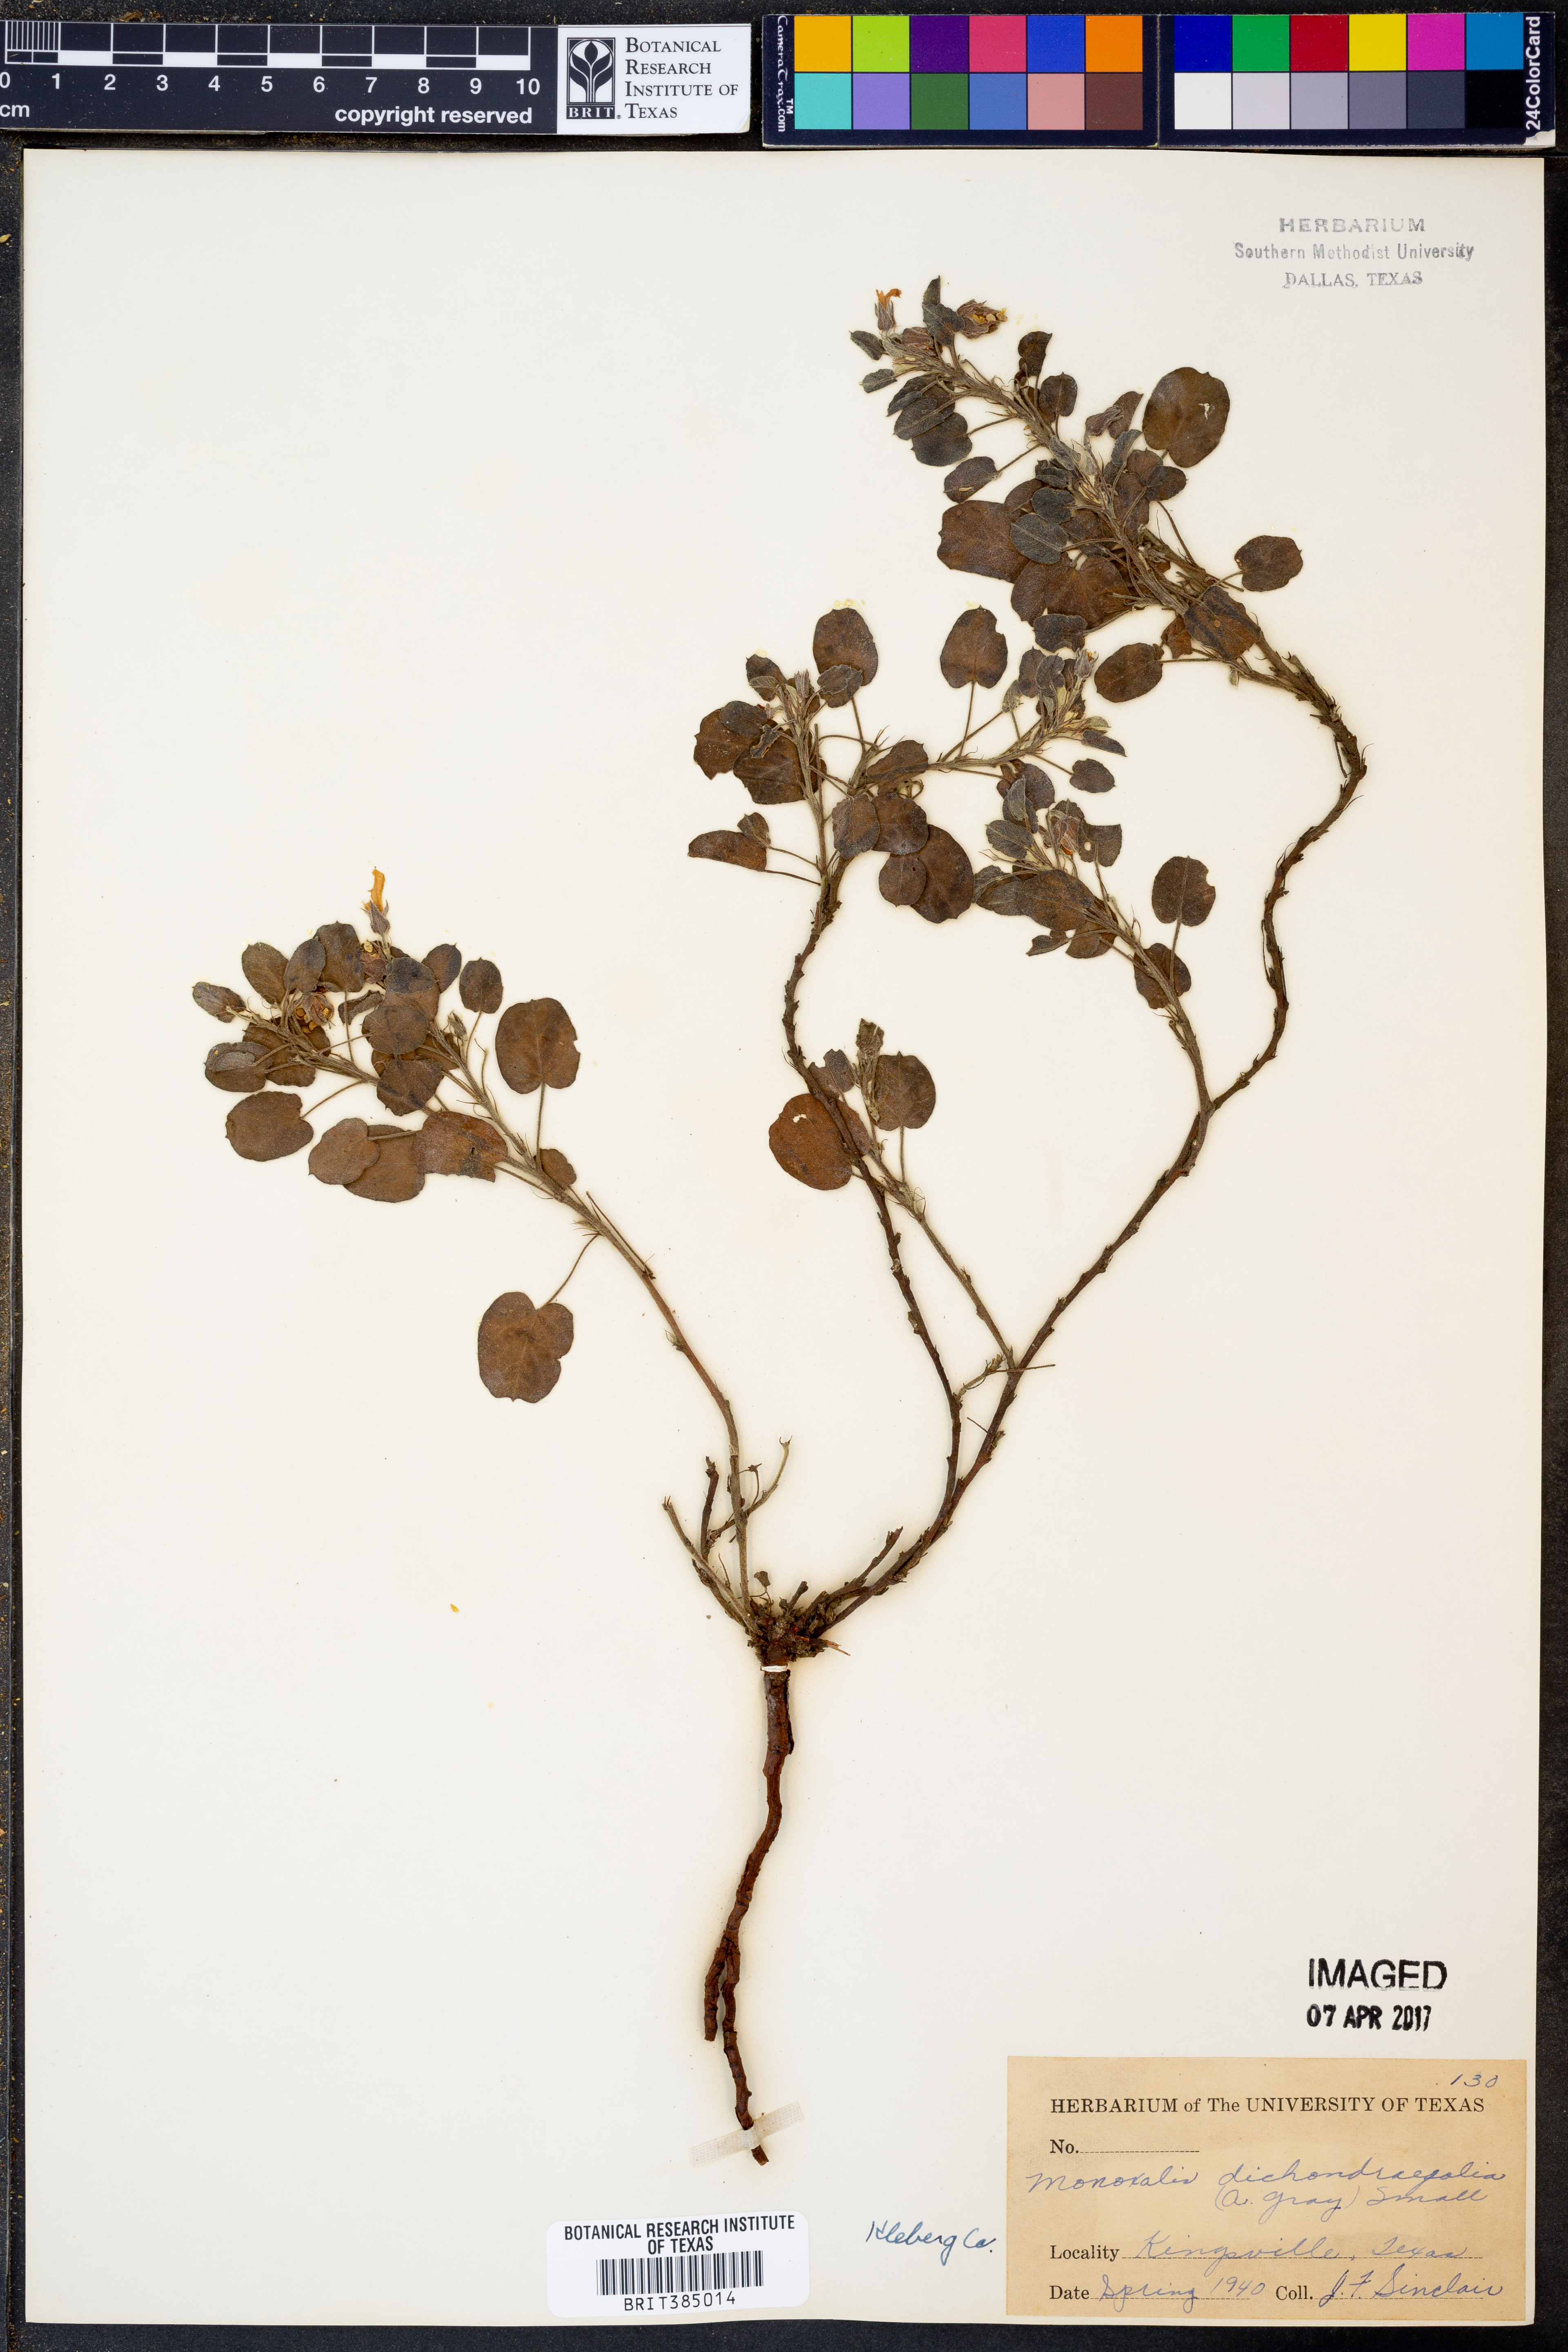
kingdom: Plantae
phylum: Tracheophyta
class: Magnoliopsida
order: Oxalidales
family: Oxalidaceae
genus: Oxalis
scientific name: Oxalis dichondrifolia
